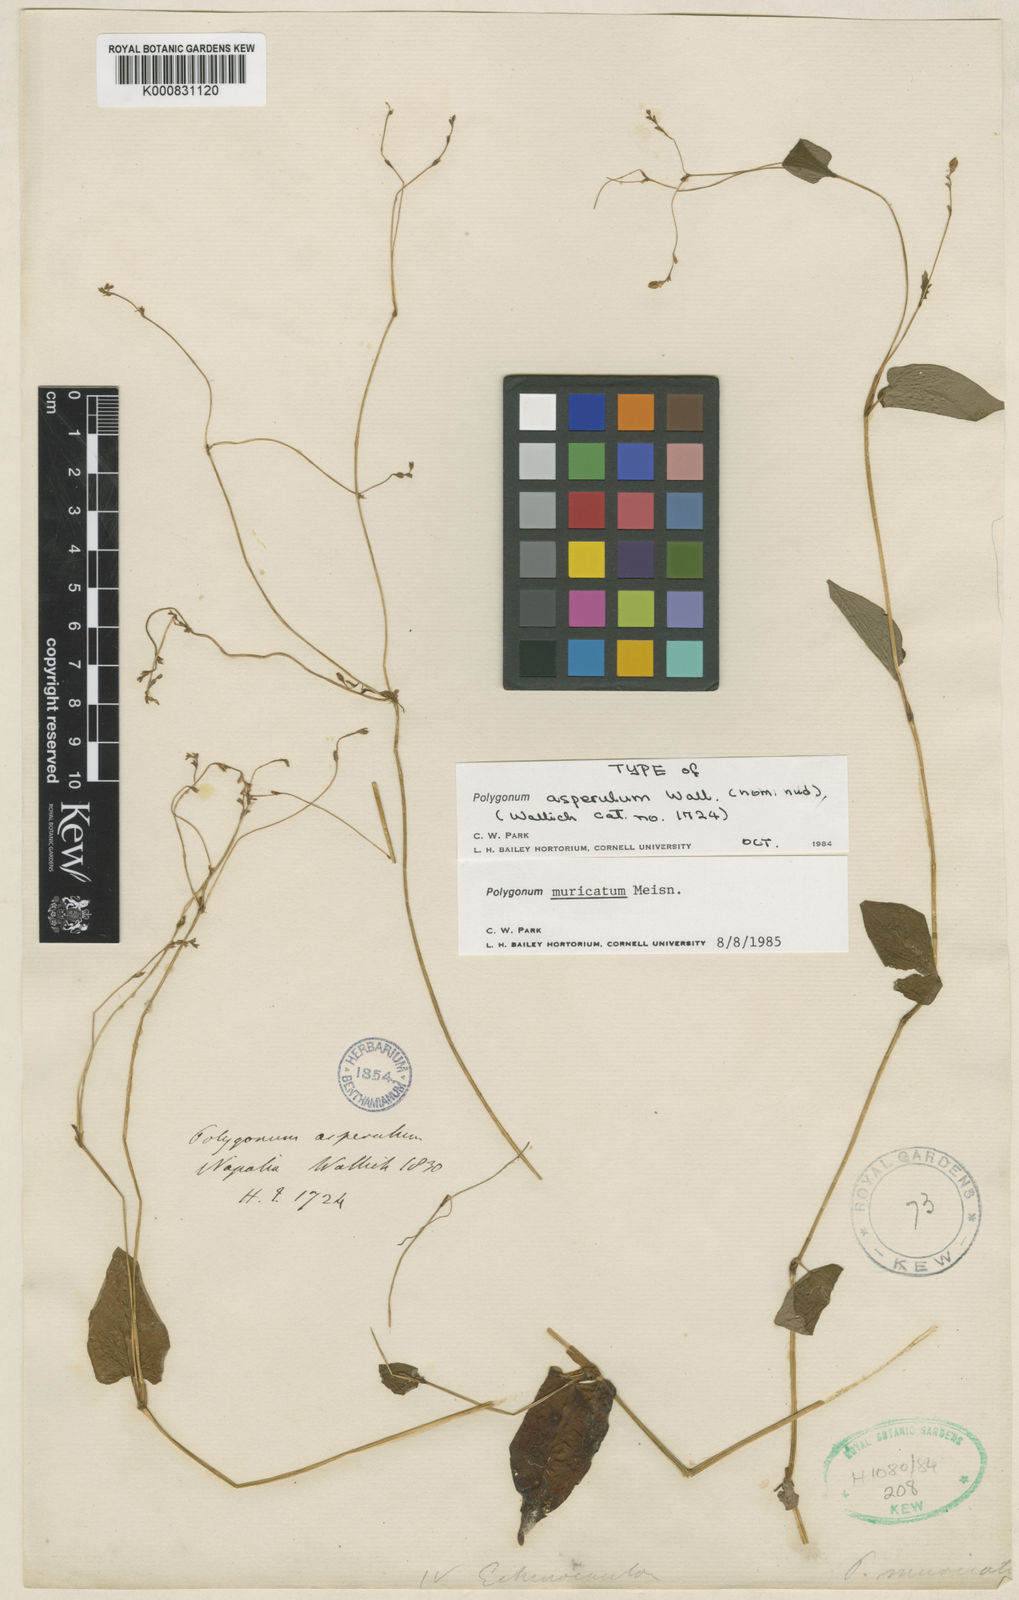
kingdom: Plantae
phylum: Tracheophyta
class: Magnoliopsida
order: Caryophyllales
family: Polygonaceae
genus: Persicaria
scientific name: Persicaria muricata
